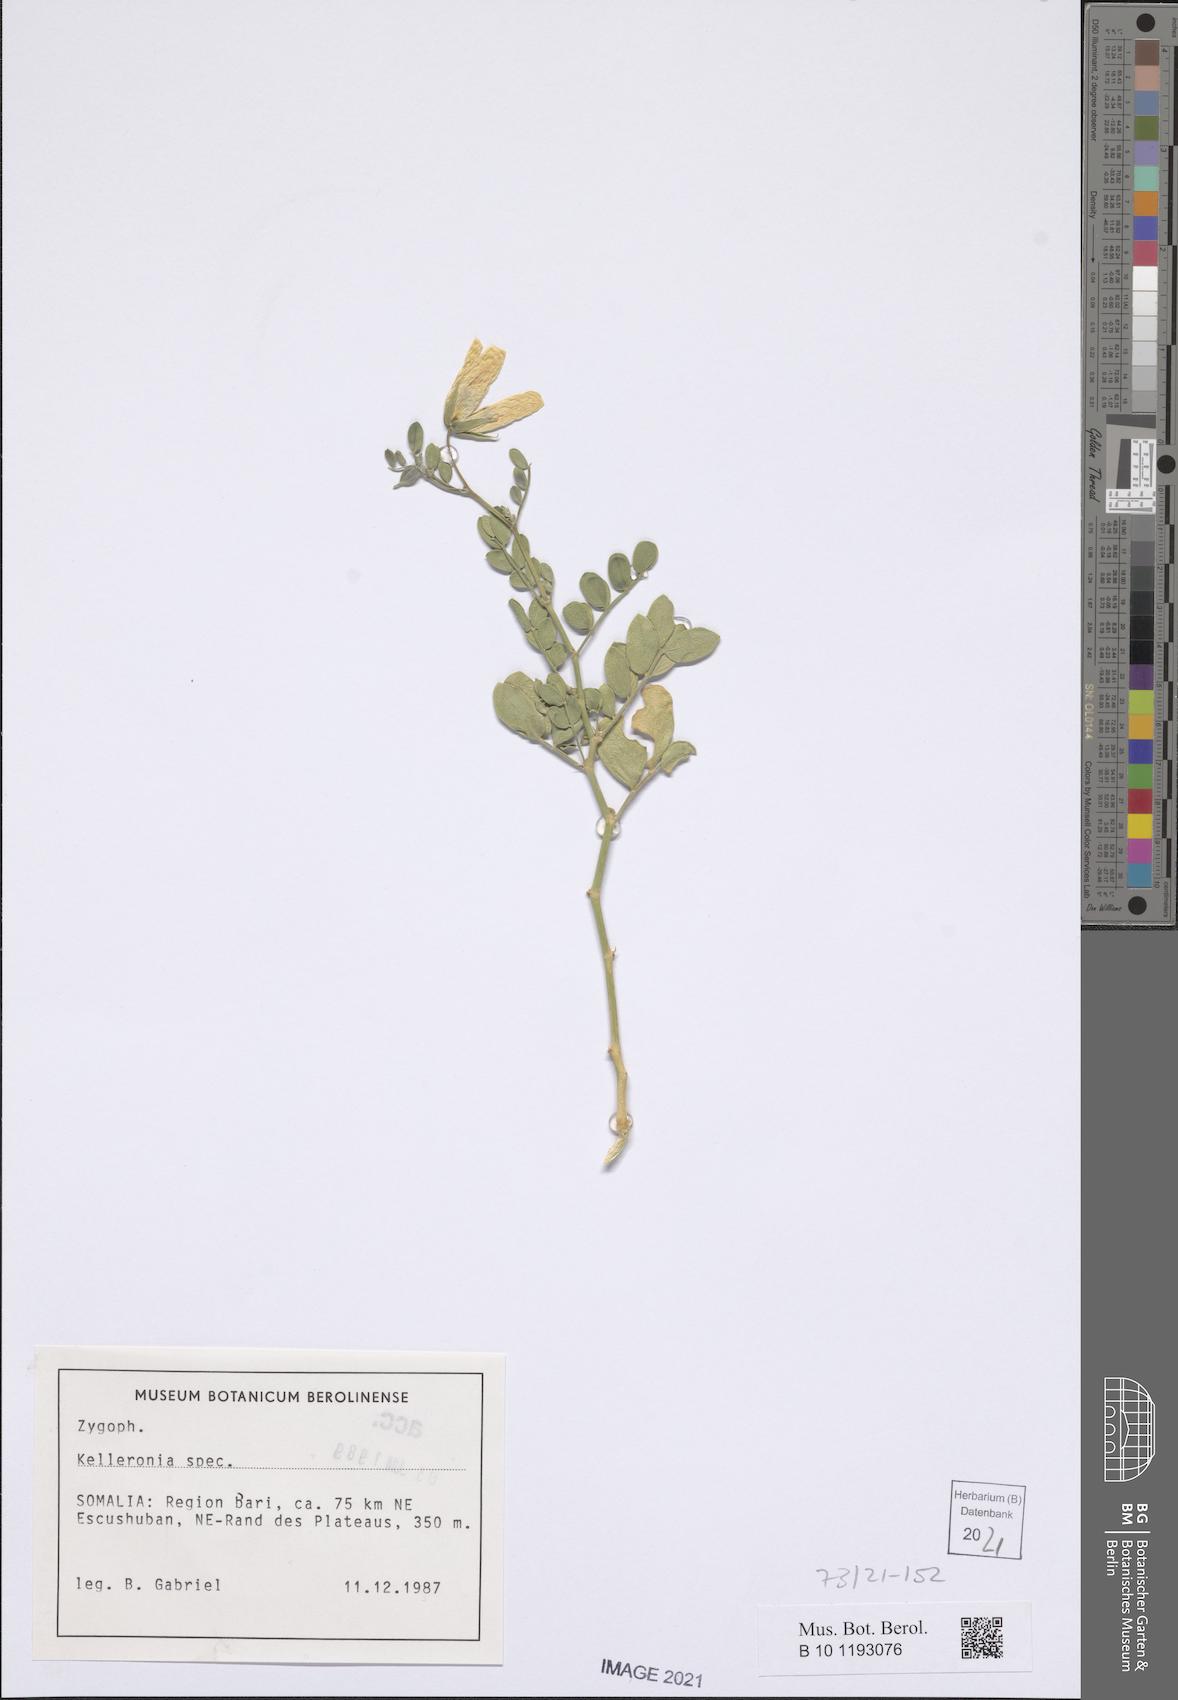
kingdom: Plantae
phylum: Tracheophyta
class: Magnoliopsida
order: Zygophyllales
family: Zygophyllaceae
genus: Kelleronia
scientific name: Kelleronia
